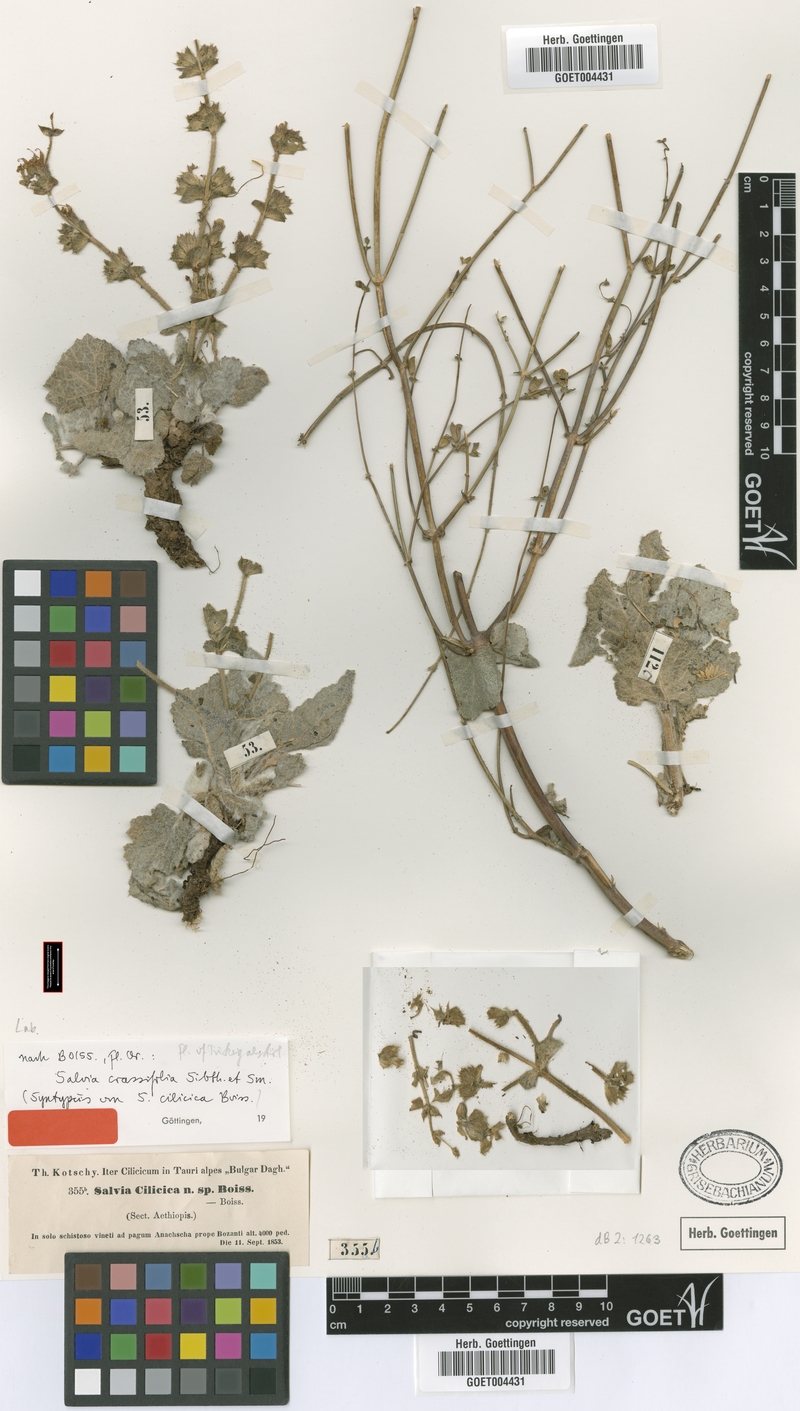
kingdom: Plantae
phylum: Tracheophyta
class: Magnoliopsida
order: Lamiales
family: Lamiaceae
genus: Salvia
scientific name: Salvia cilicica
